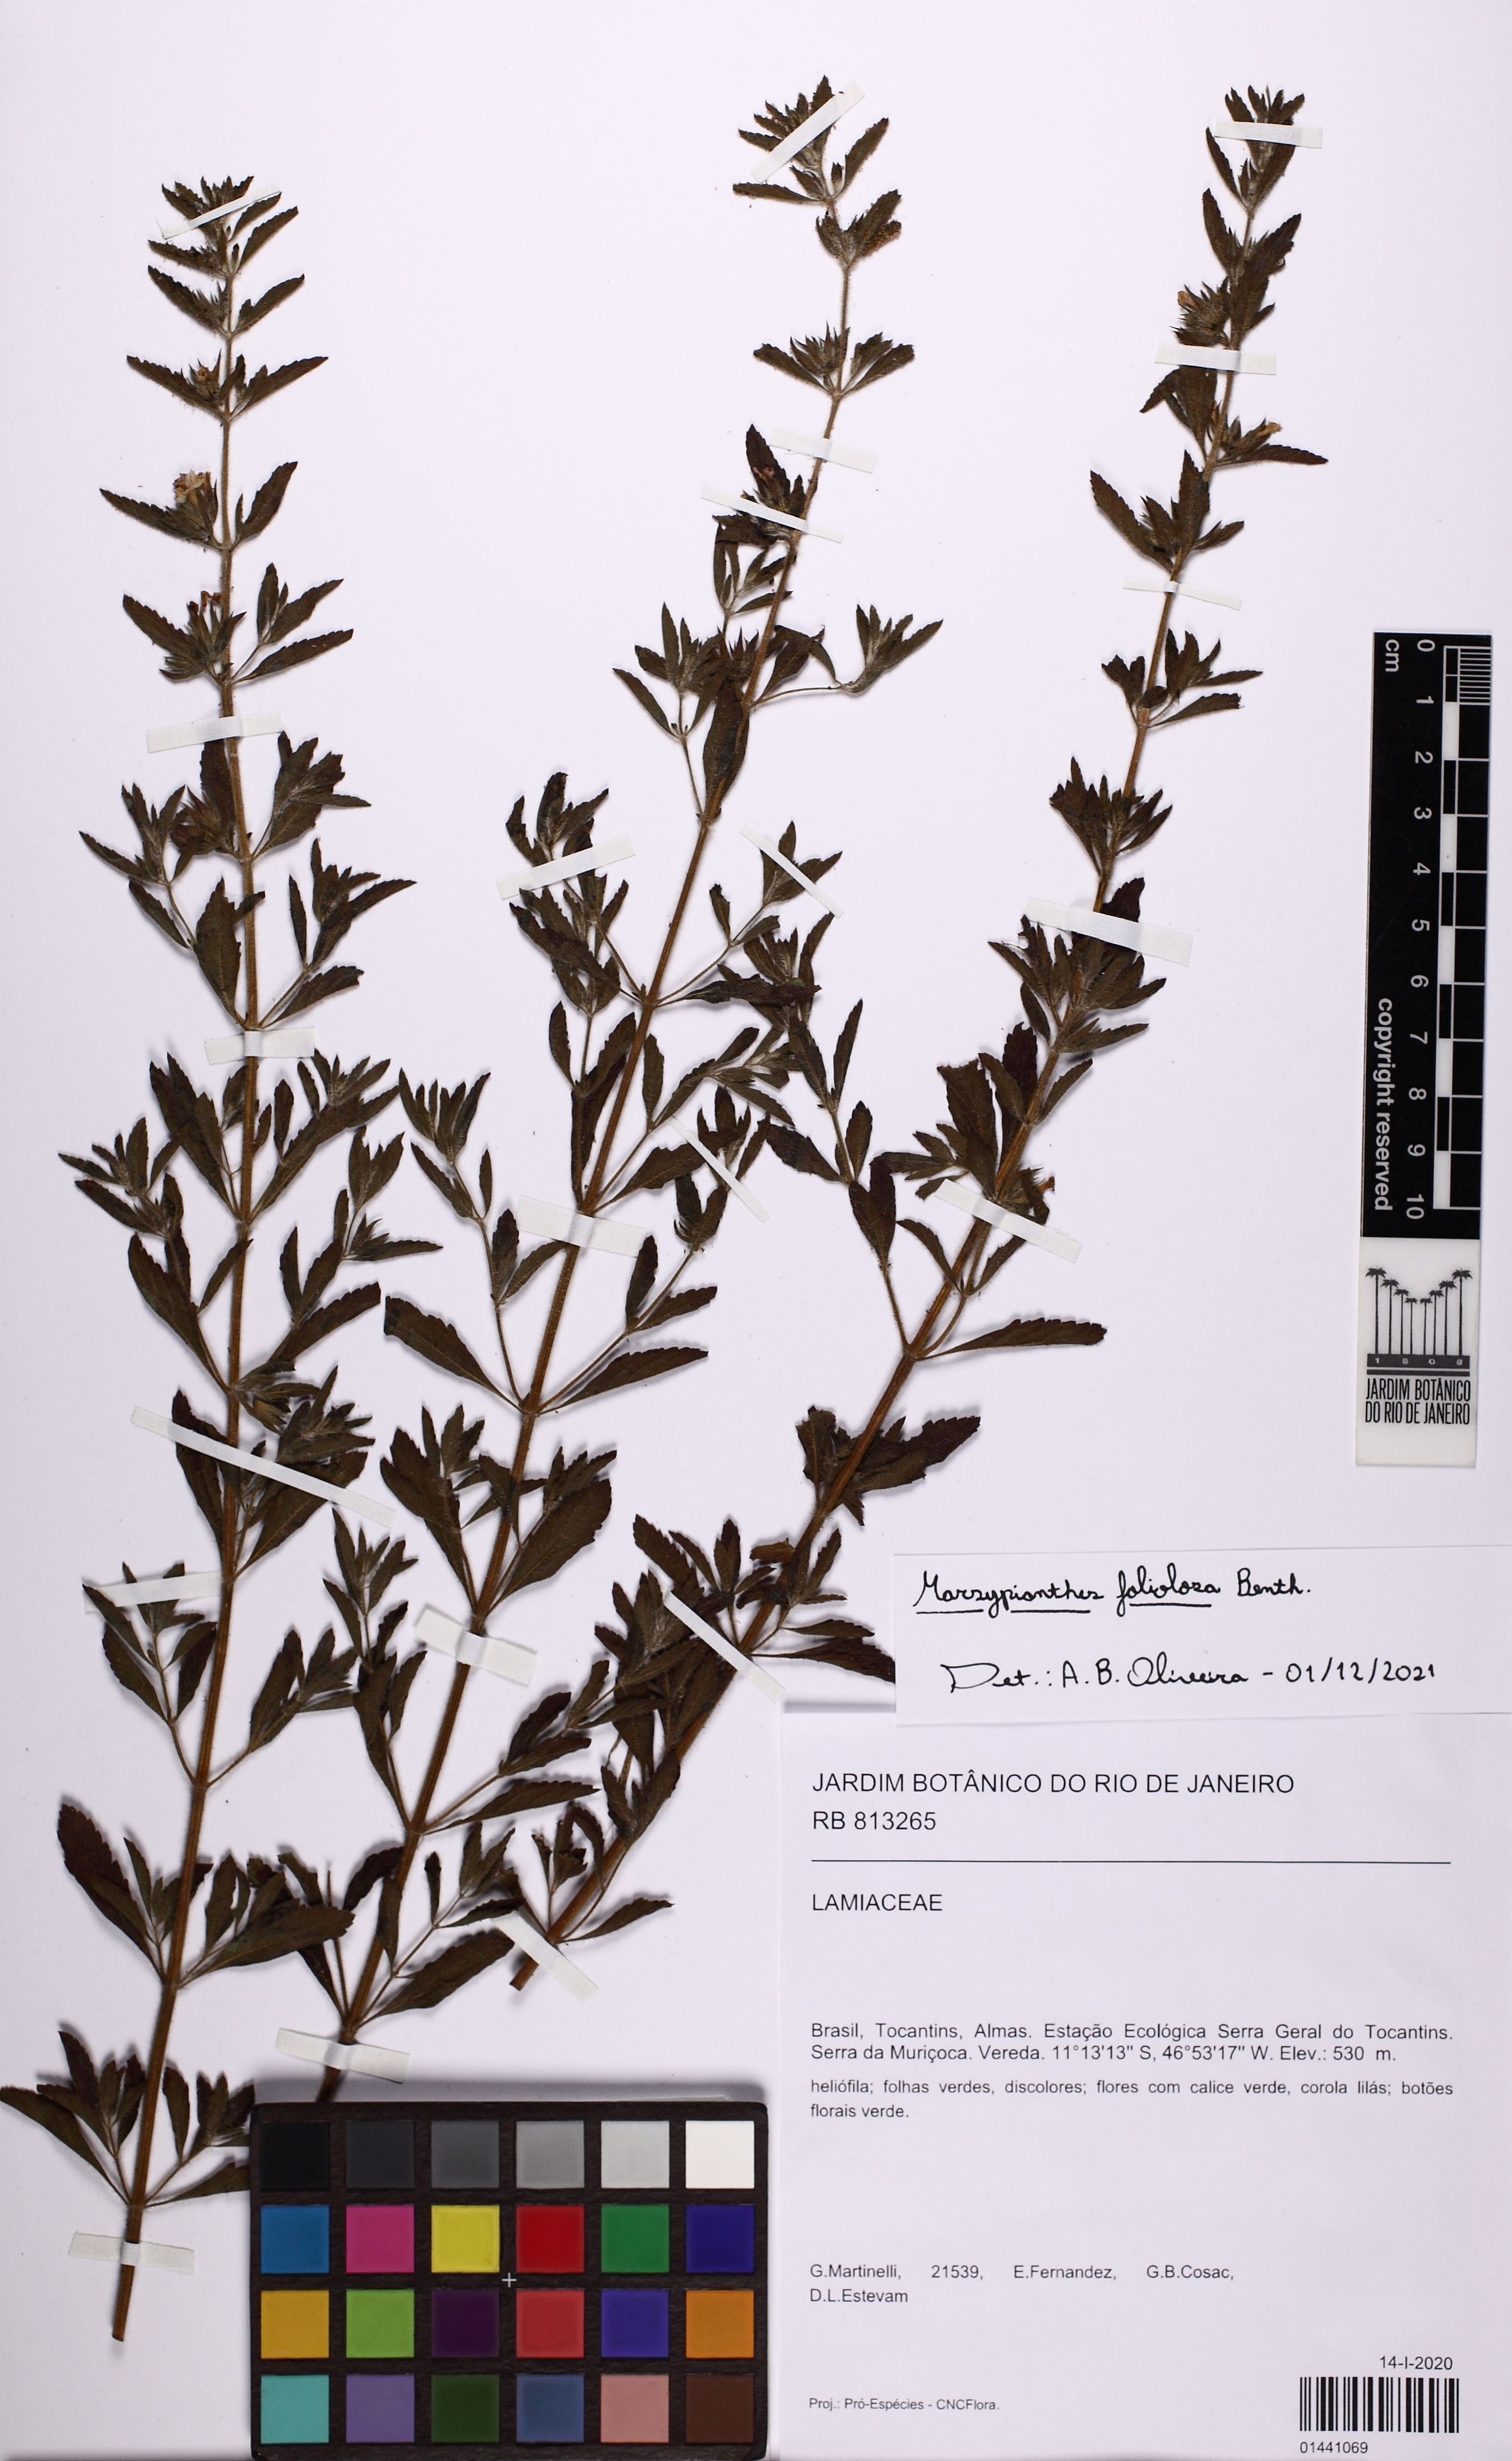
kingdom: Plantae
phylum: Tracheophyta
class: Magnoliopsida
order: Lamiales
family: Lamiaceae
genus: Marsypianthes
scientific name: Marsypianthes foliolosa
